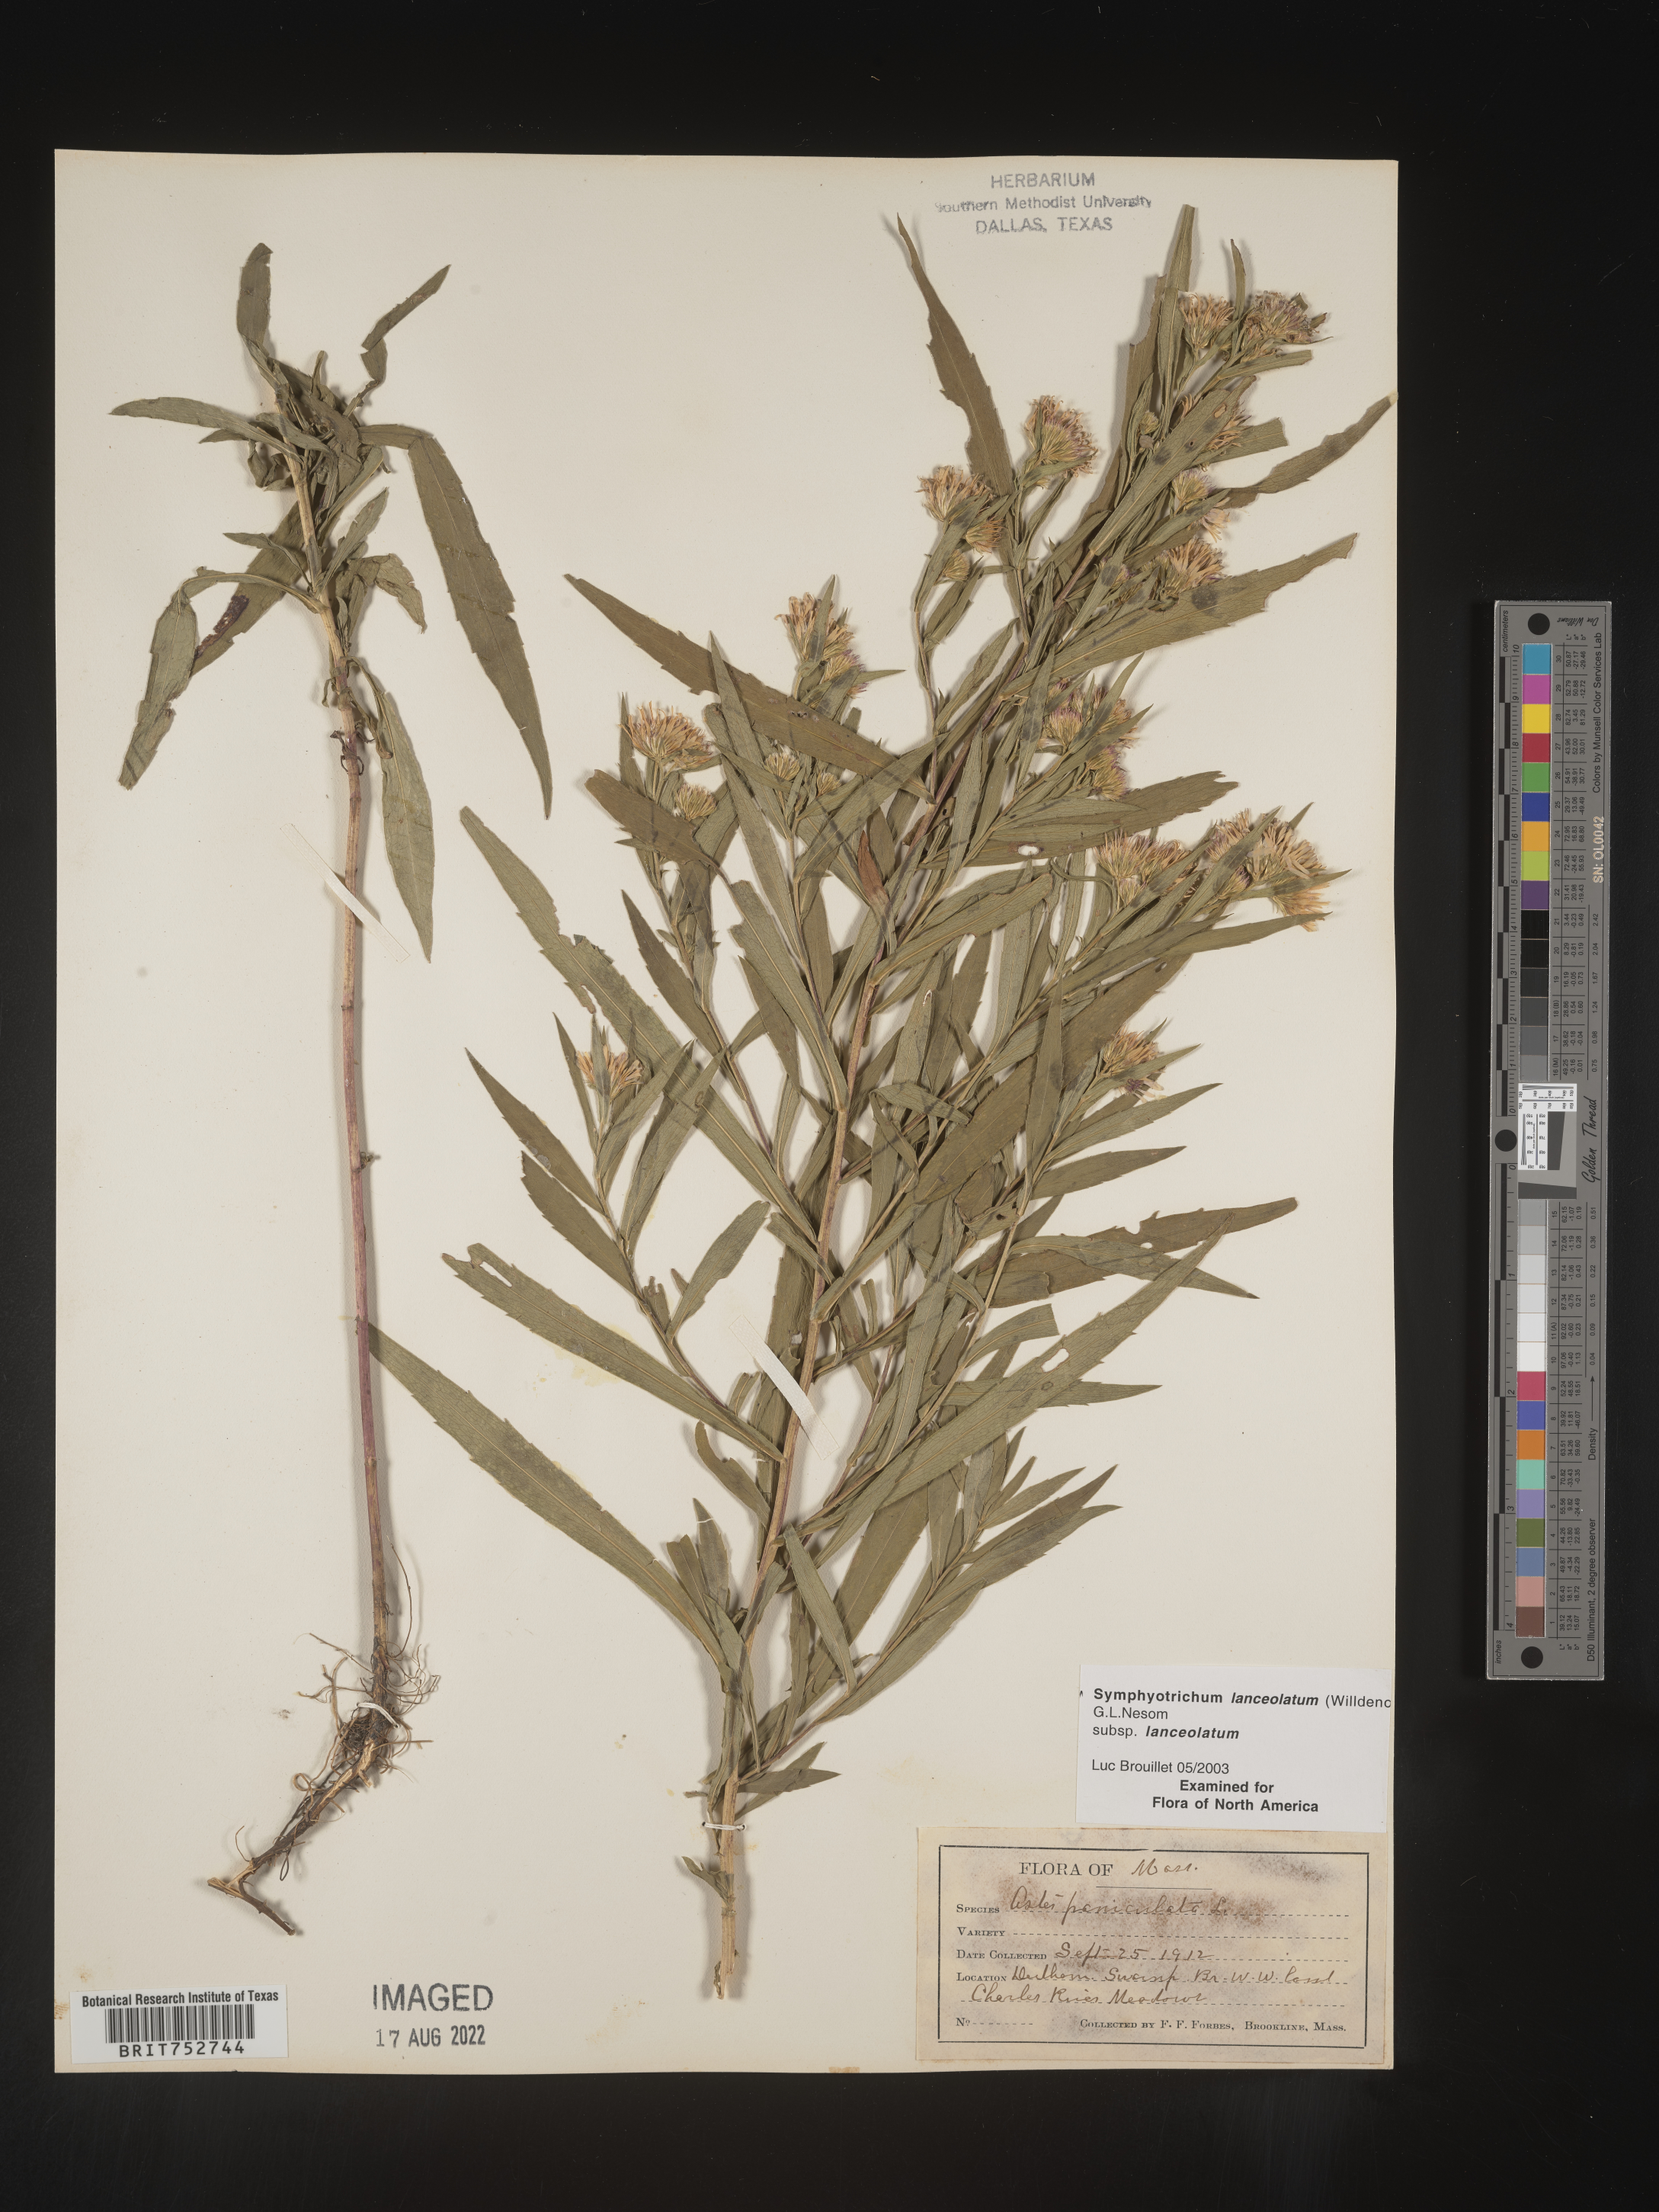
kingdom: Plantae
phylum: Tracheophyta
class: Magnoliopsida
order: Asterales
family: Asteraceae
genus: Symphyotrichum
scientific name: Symphyotrichum lanceolatum
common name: Panicled aster
